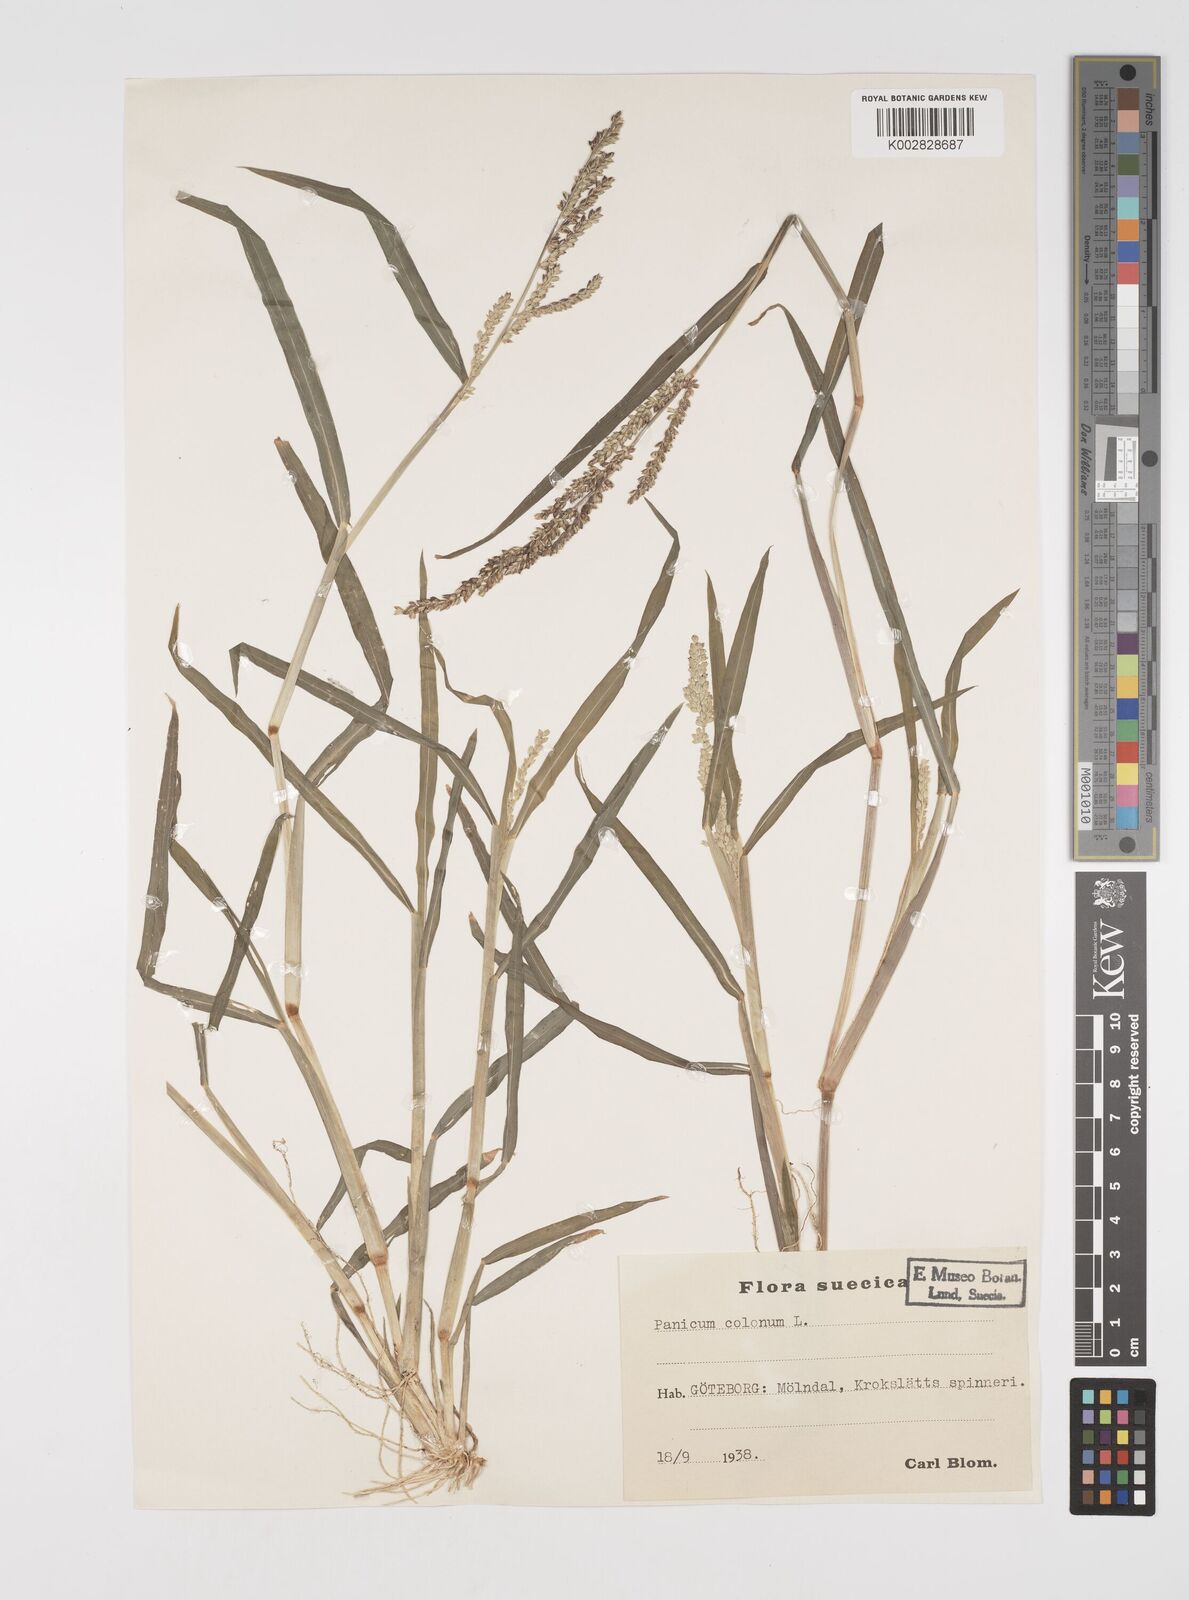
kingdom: Plantae
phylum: Tracheophyta
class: Liliopsida
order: Poales
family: Poaceae
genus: Echinochloa
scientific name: Echinochloa colonum
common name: Jungle rice
